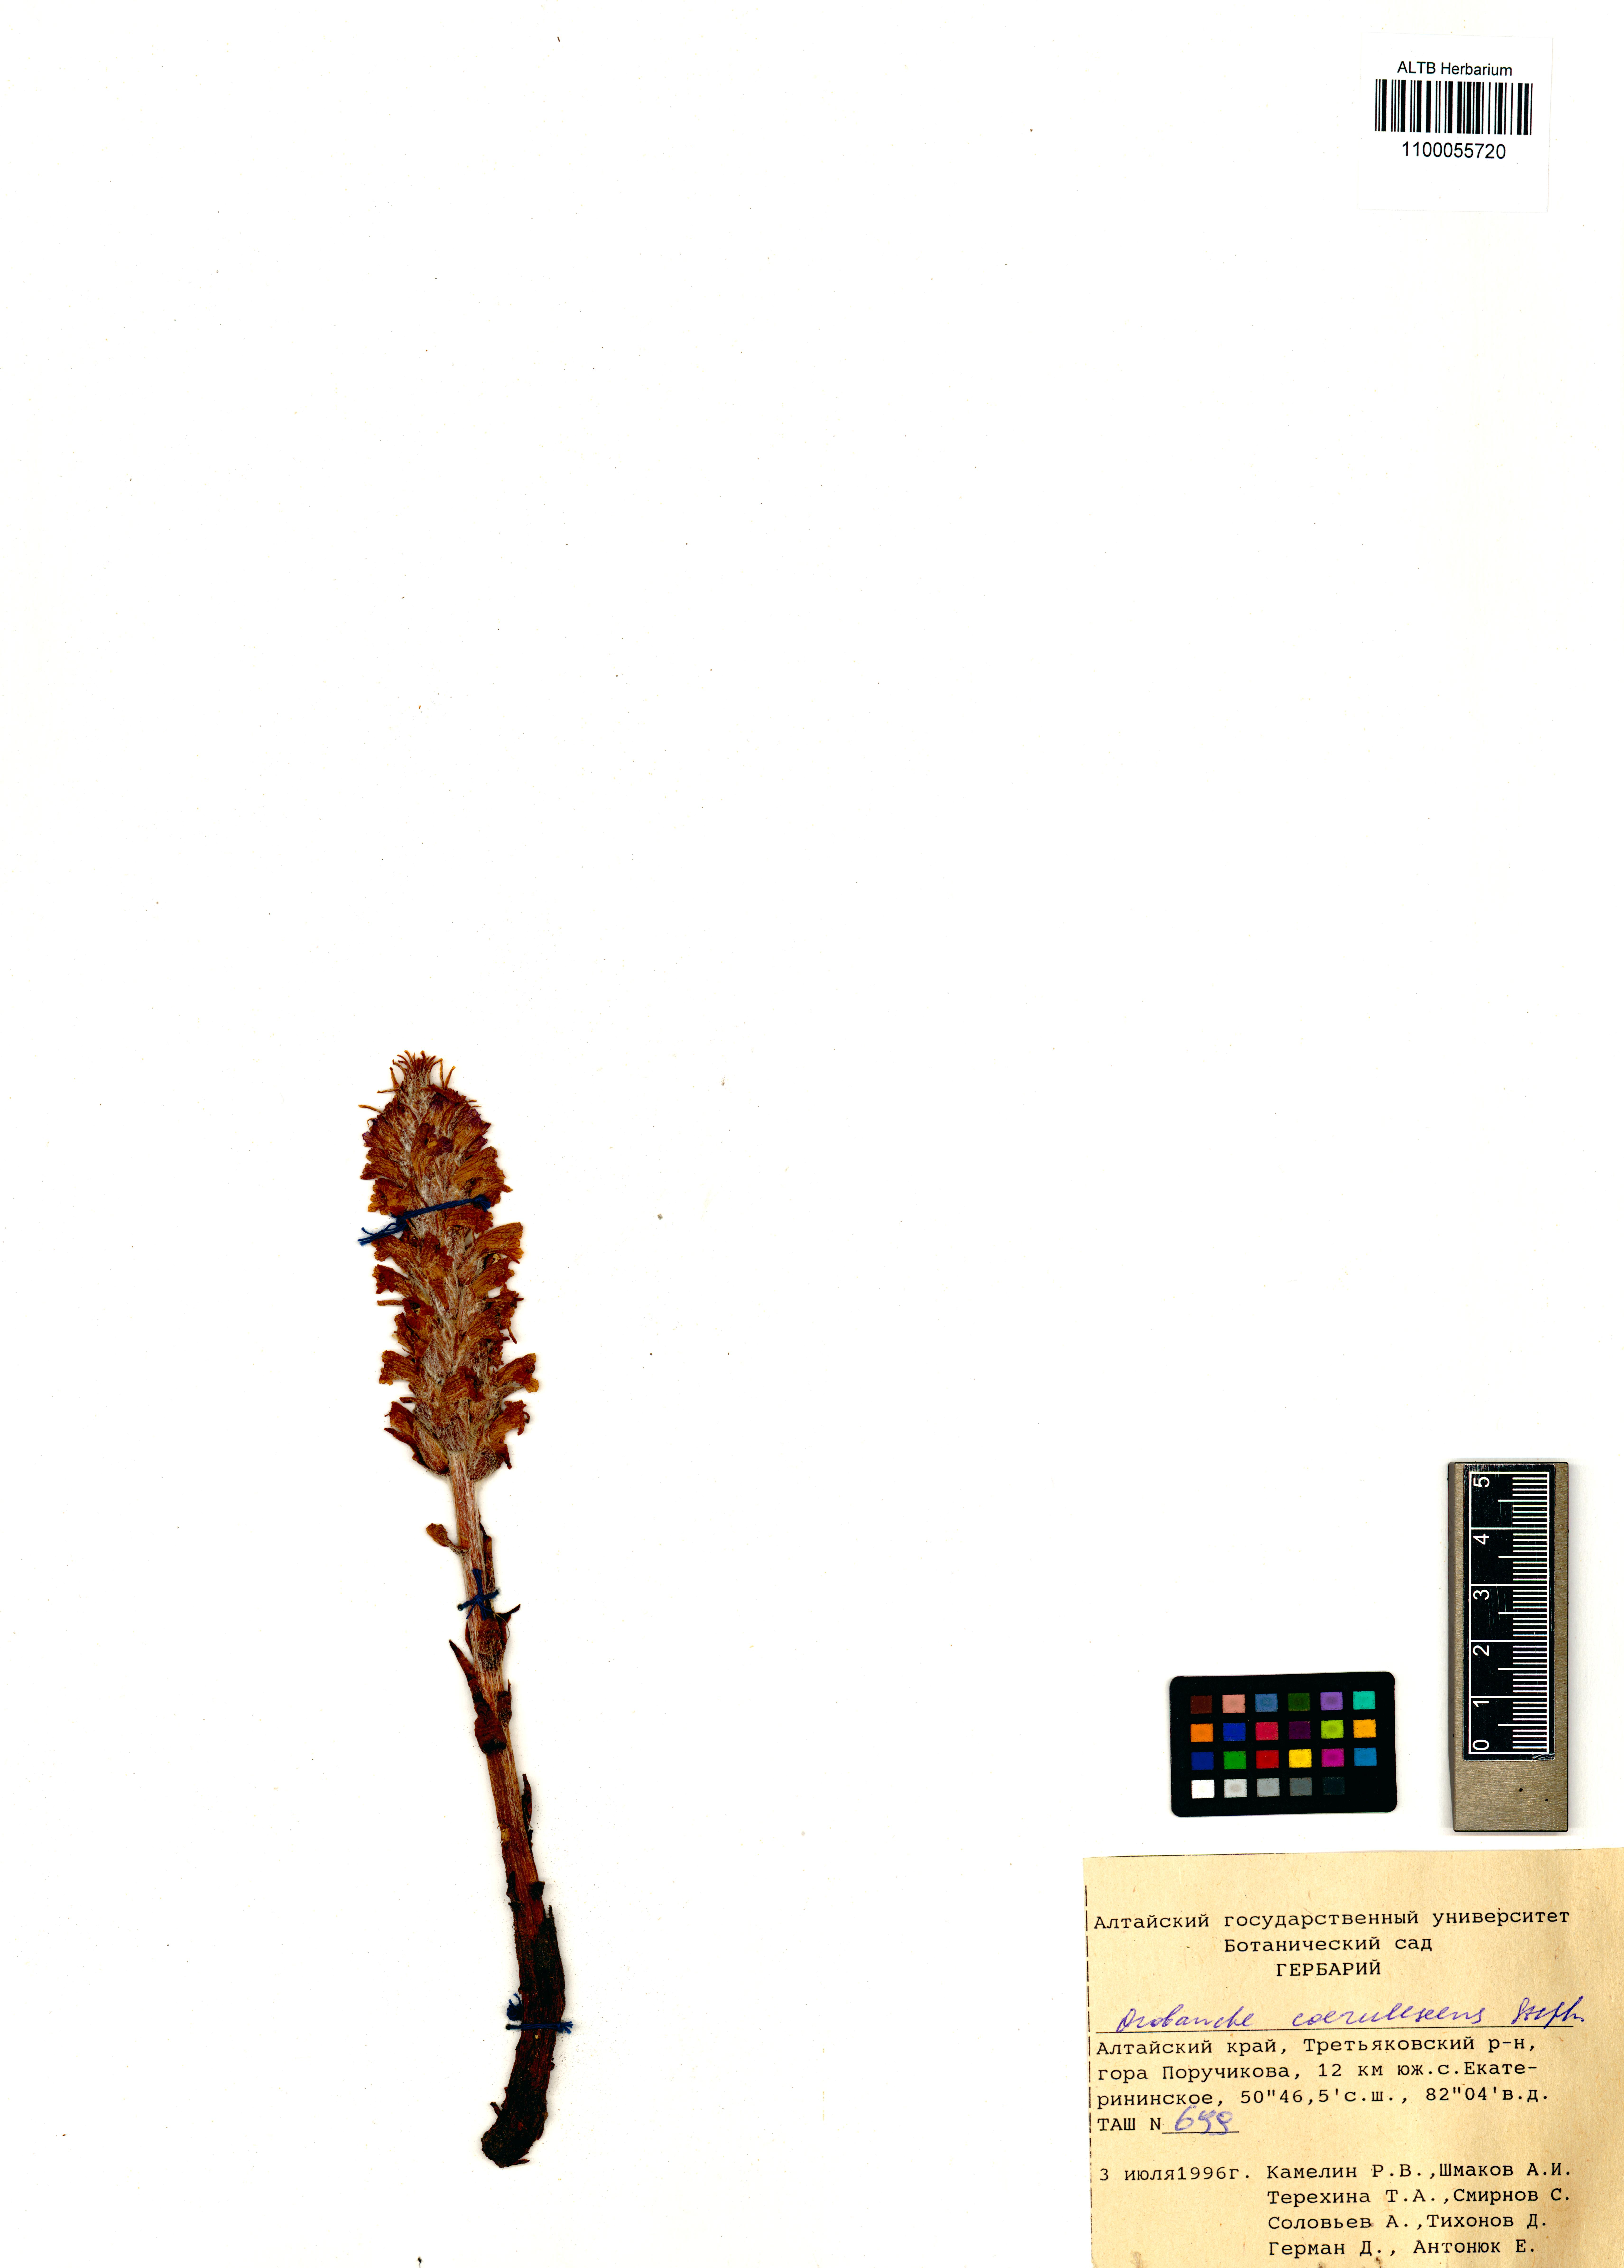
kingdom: Plantae
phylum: Tracheophyta
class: Magnoliopsida
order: Lamiales
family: Orobanchaceae
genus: Orobanche
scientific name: Orobanche coerulescens
